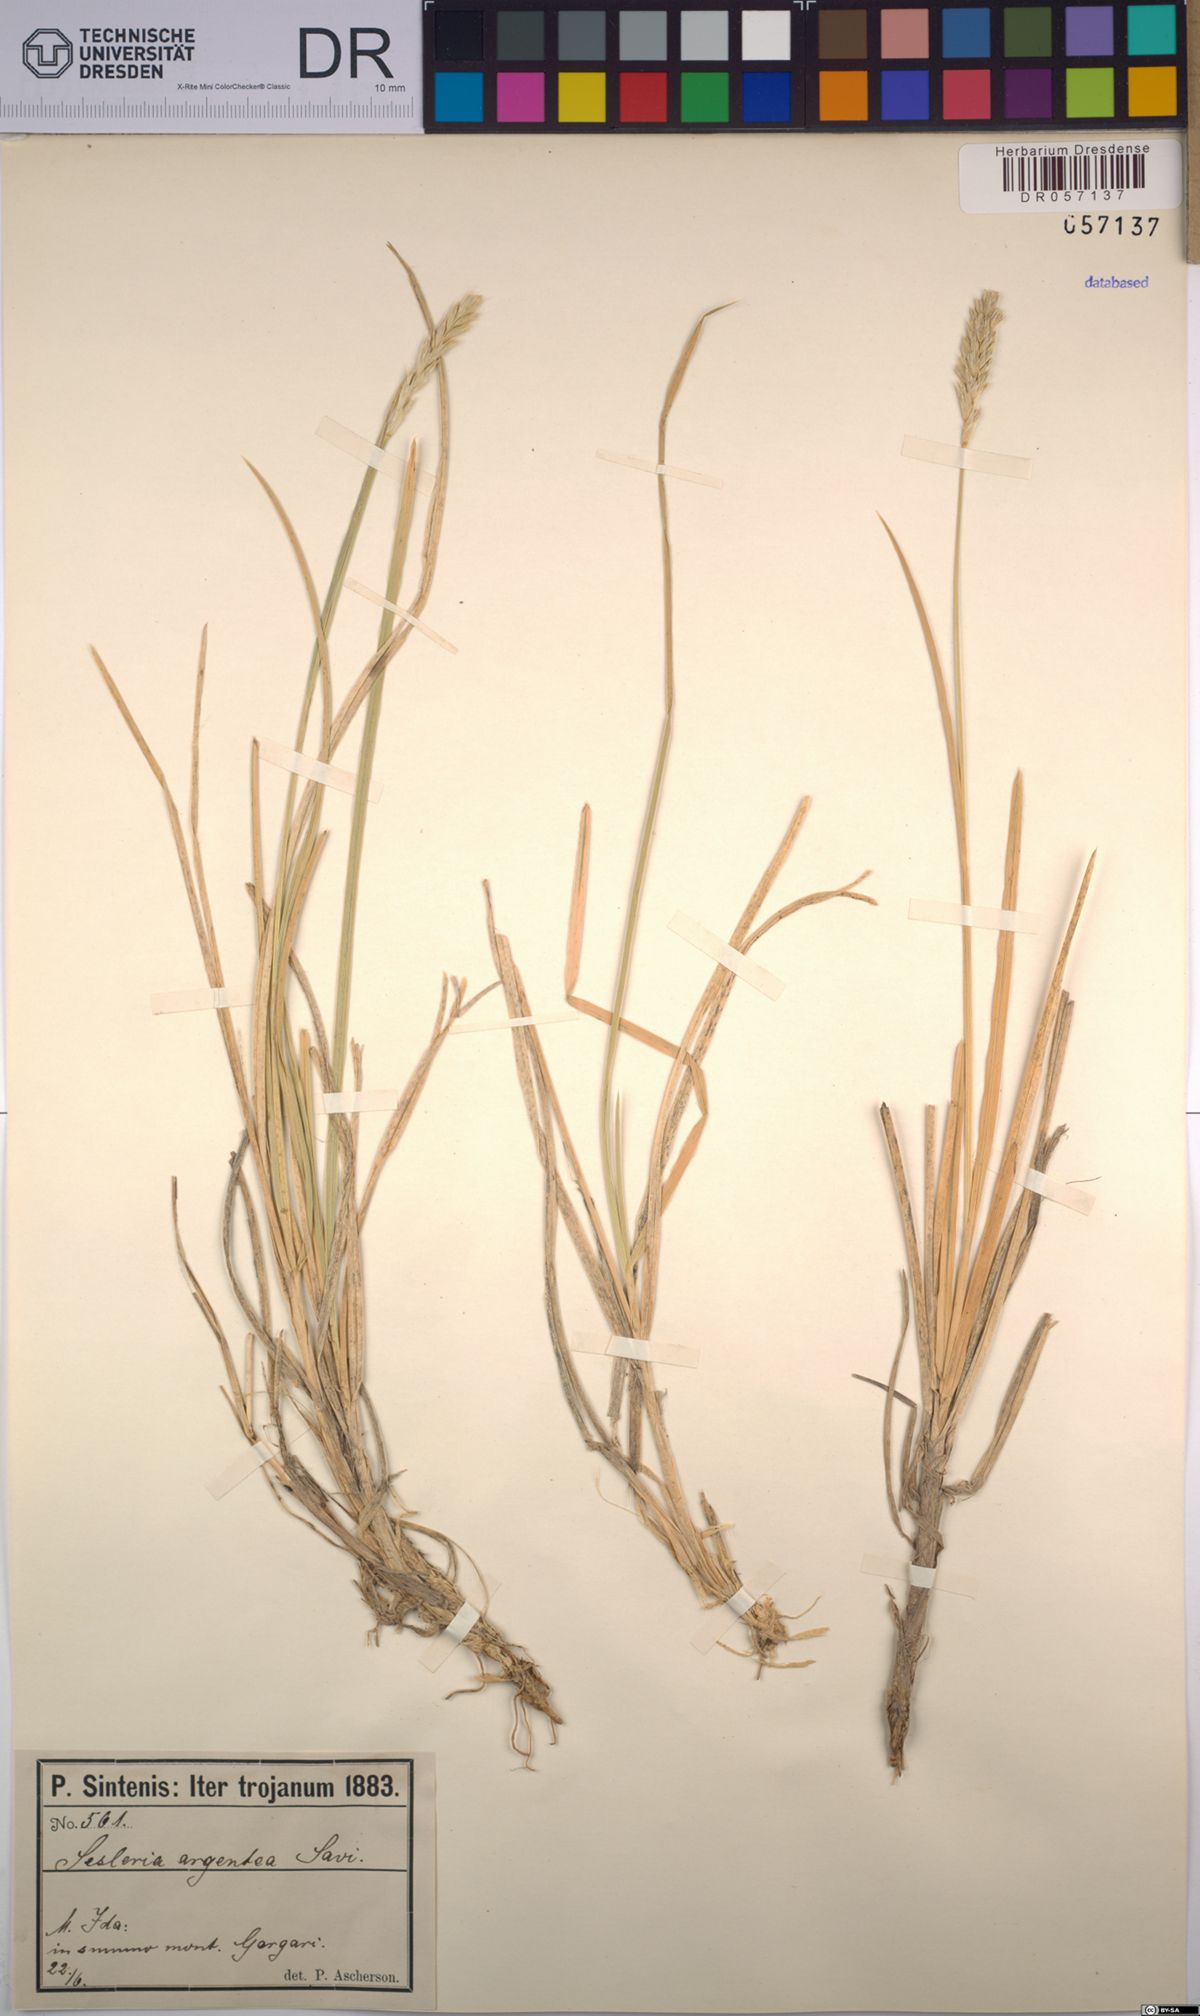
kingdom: Plantae
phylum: Tracheophyta
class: Liliopsida
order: Poales
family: Poaceae
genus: Sesleria
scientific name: Sesleria argentea
